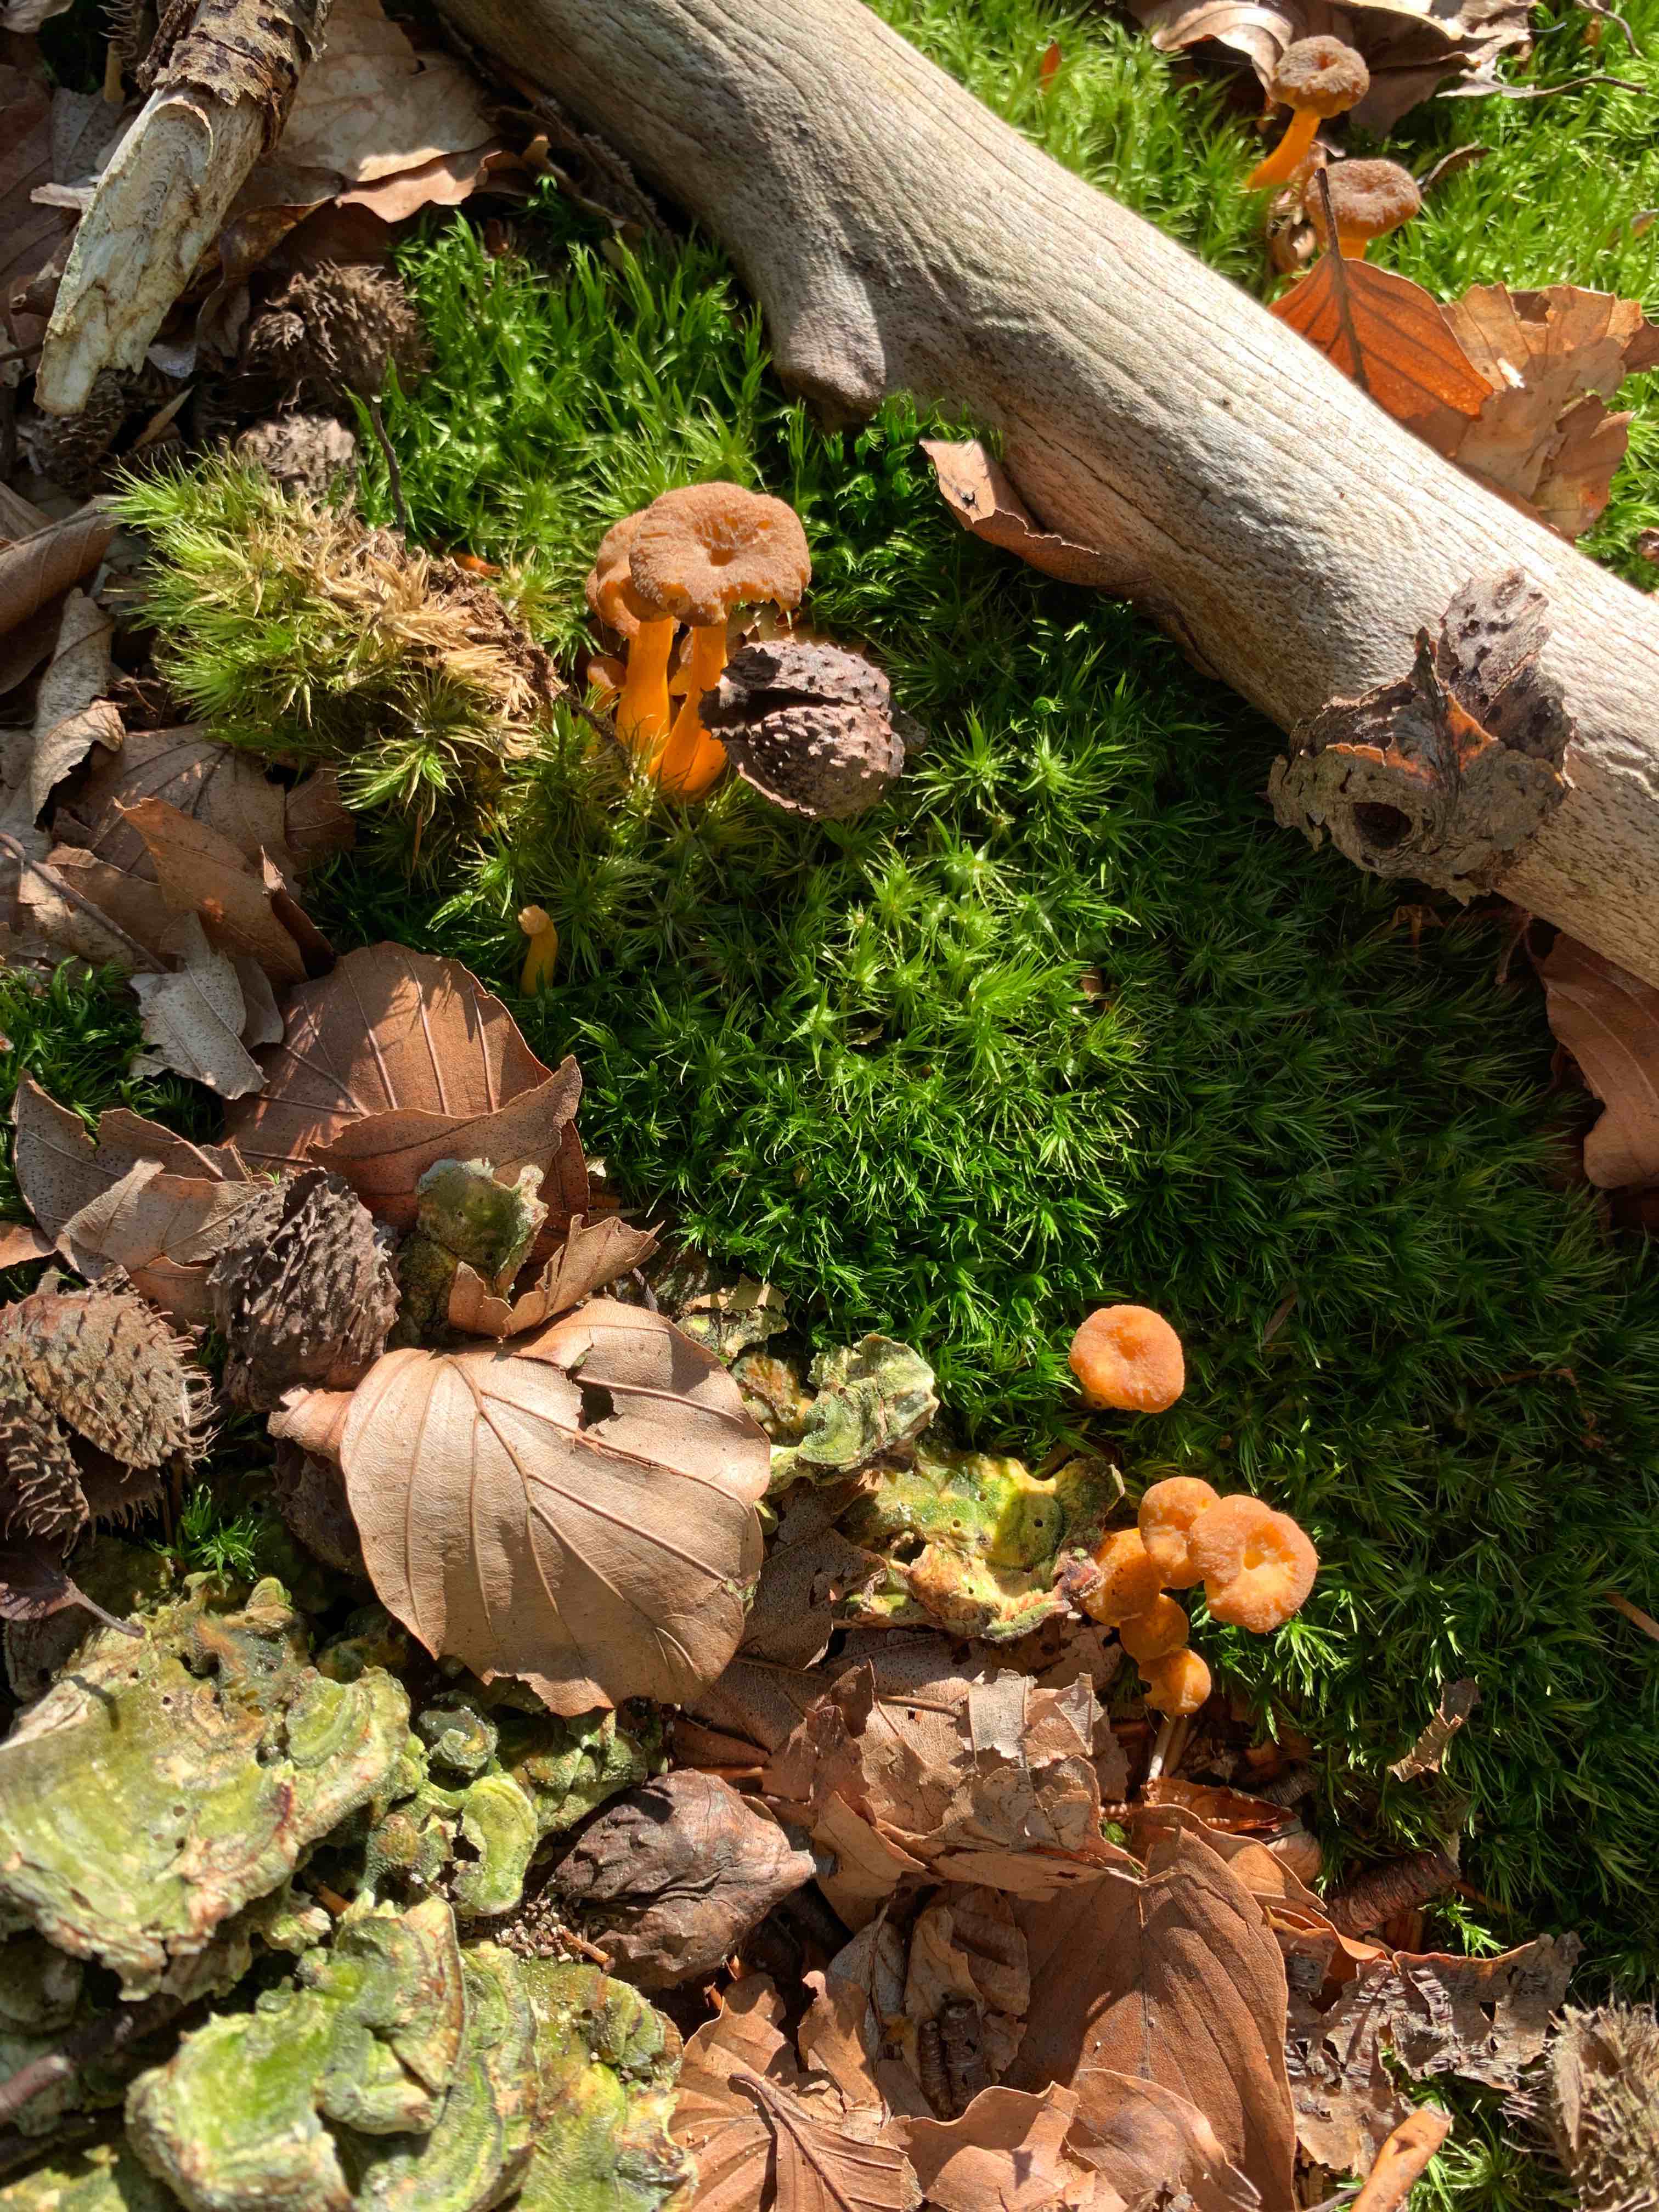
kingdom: Fungi
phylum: Basidiomycota
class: Agaricomycetes
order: Cantharellales
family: Hydnaceae
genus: Craterellus
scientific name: Craterellus tubaeformis
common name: tragt-kantarel
